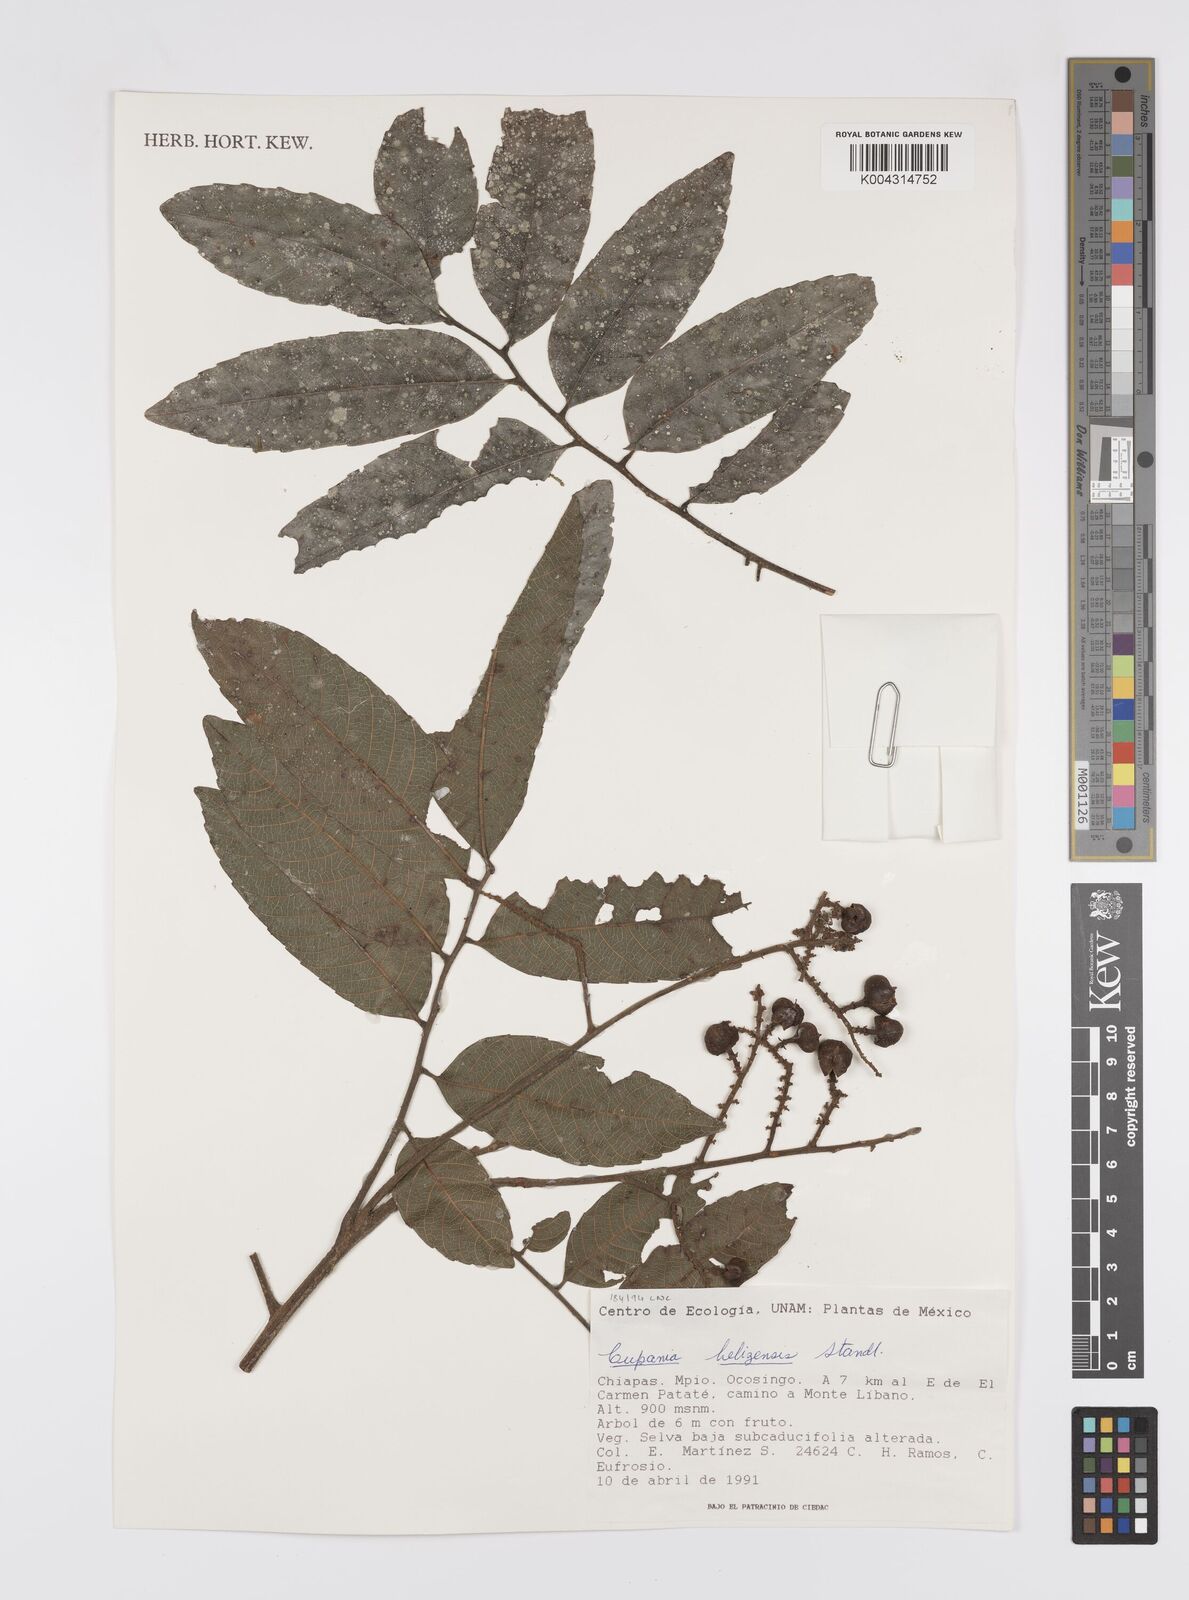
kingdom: Plantae
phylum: Tracheophyta
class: Magnoliopsida
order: Sapindales
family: Sapindaceae
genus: Cupania
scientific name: Cupania belizensis
